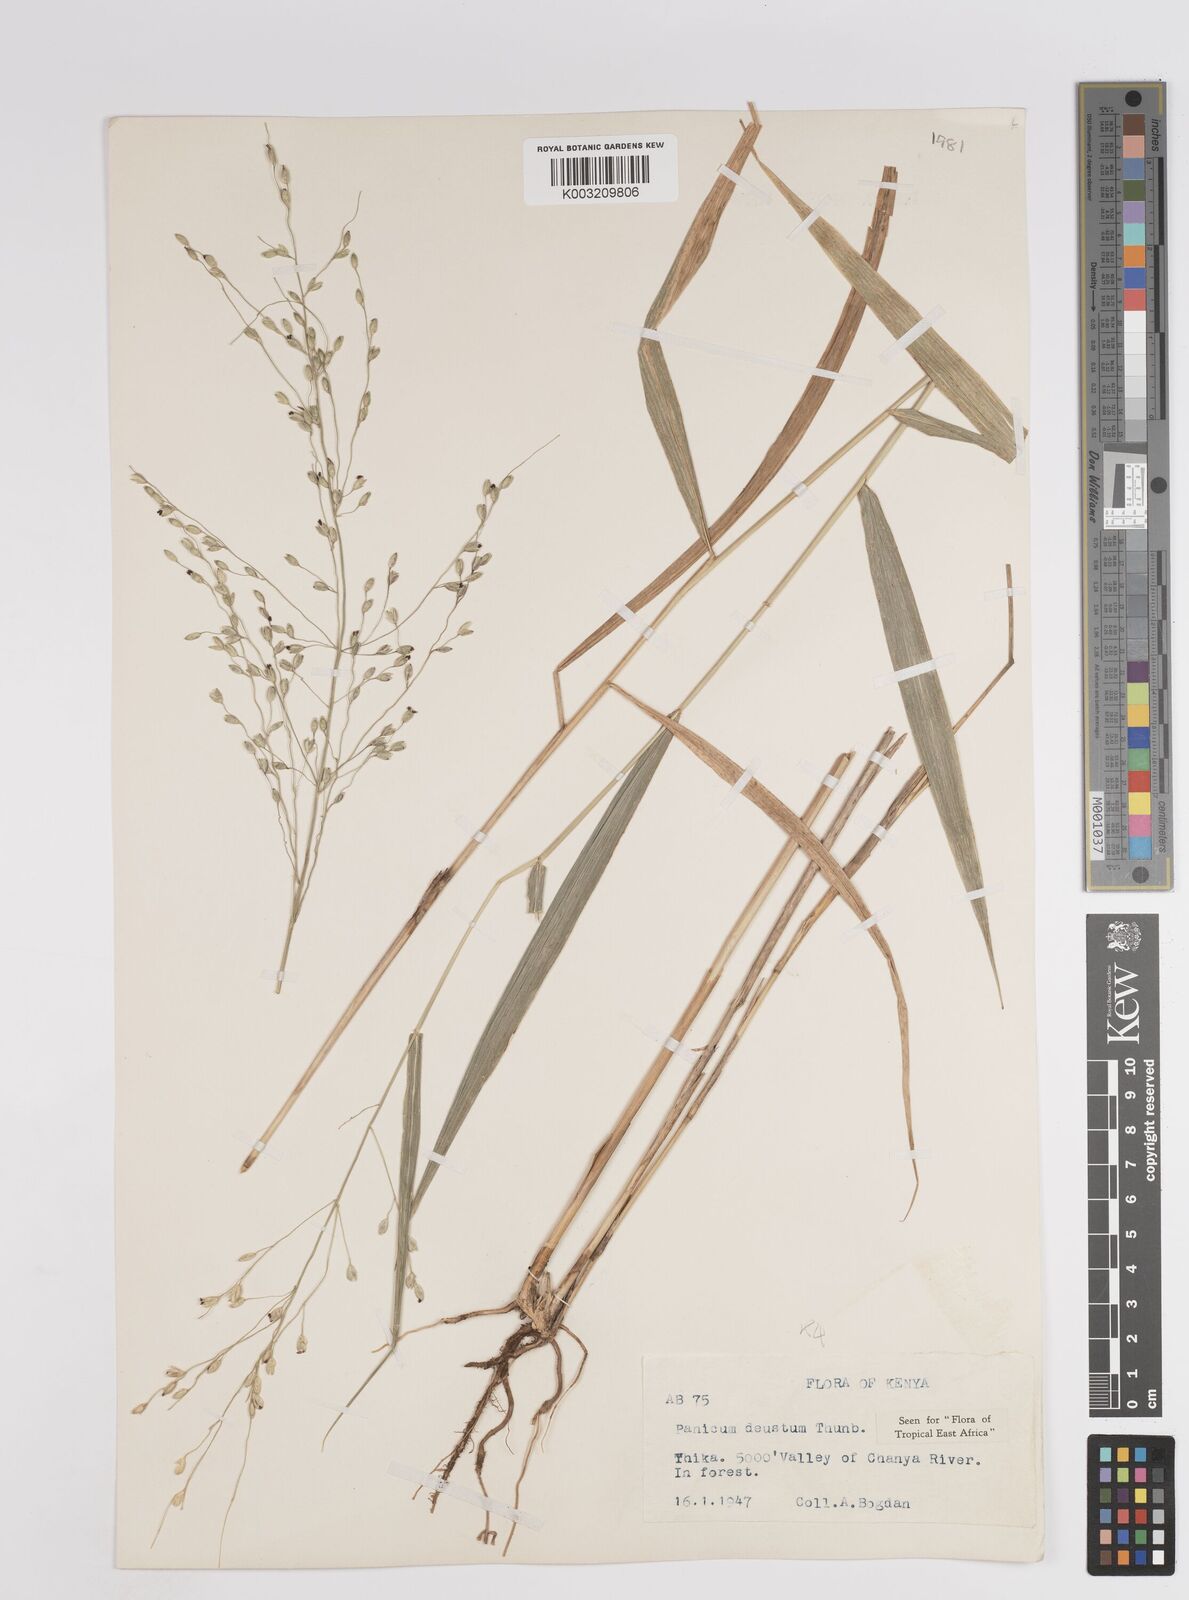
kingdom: Plantae
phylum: Tracheophyta
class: Liliopsida
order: Poales
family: Poaceae
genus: Panicum
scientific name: Panicum deustum
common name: Reed panicum
